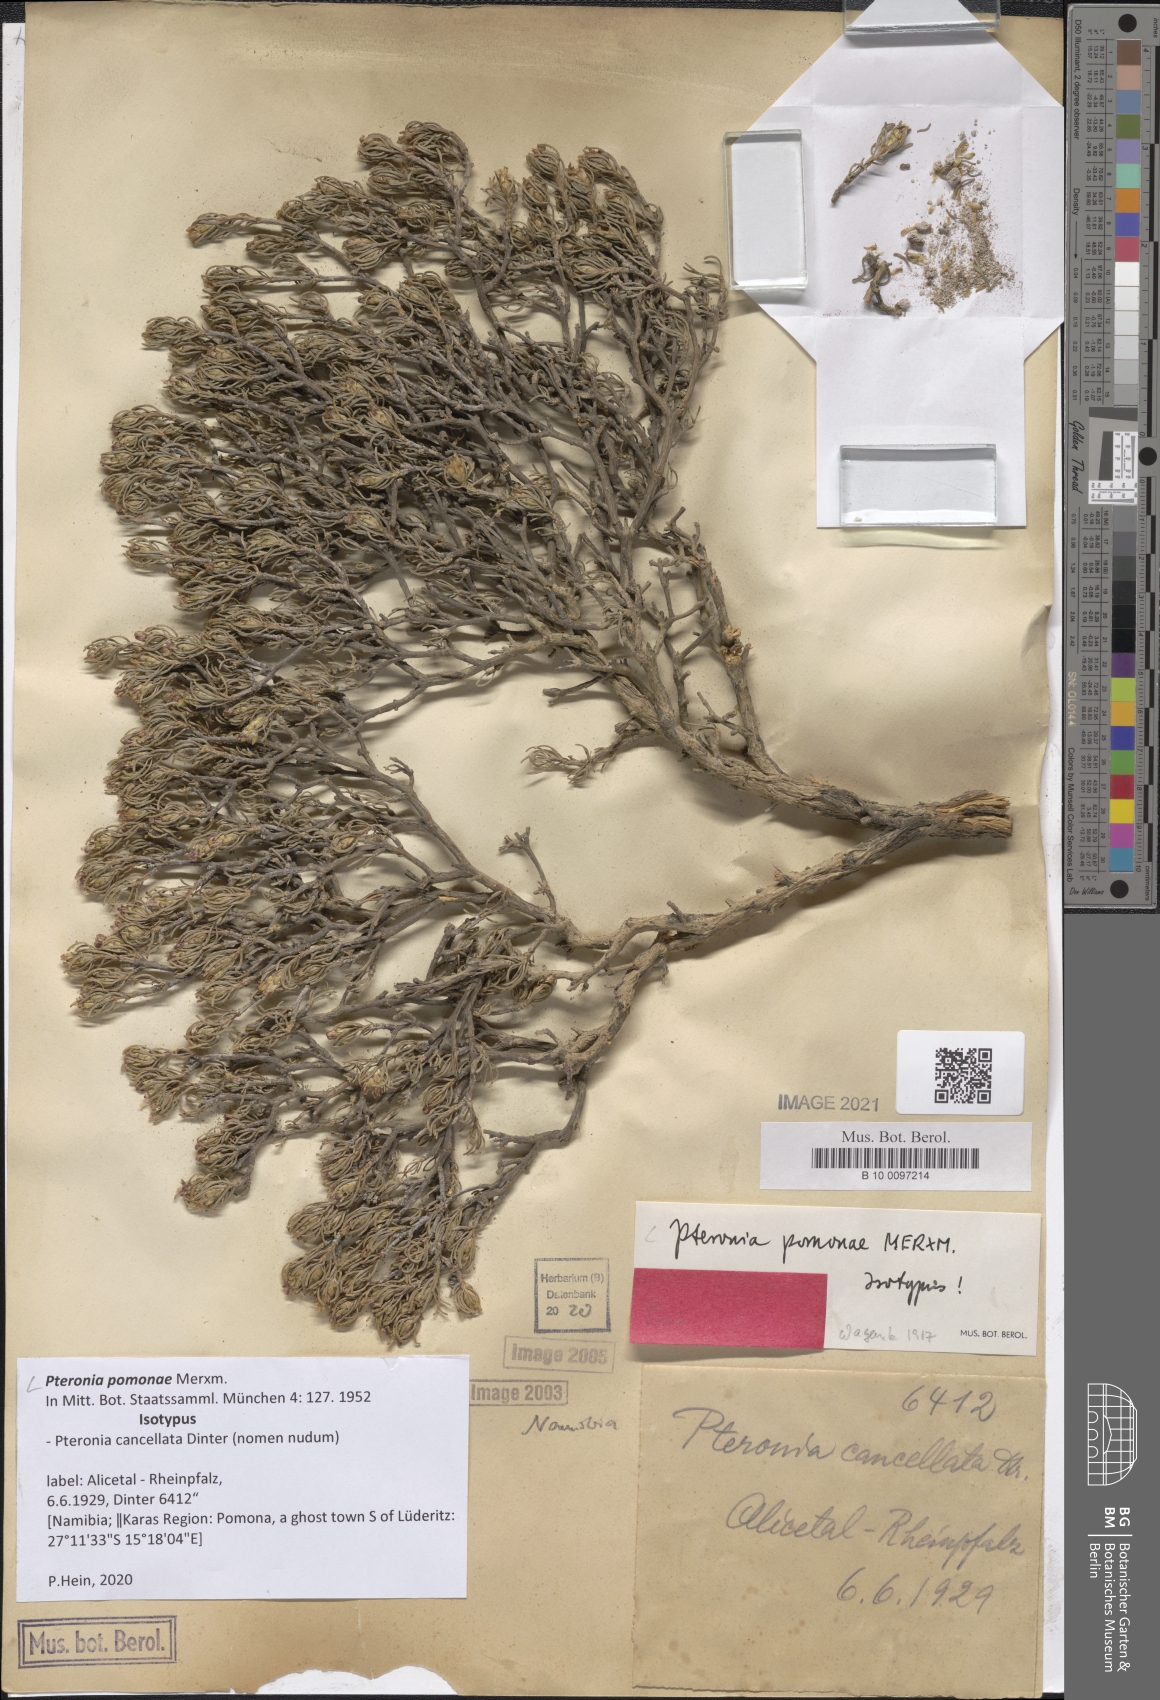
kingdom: Plantae
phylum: Tracheophyta
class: Magnoliopsida
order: Asterales
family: Asteraceae
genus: Pteronia
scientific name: Pteronia pomonae
